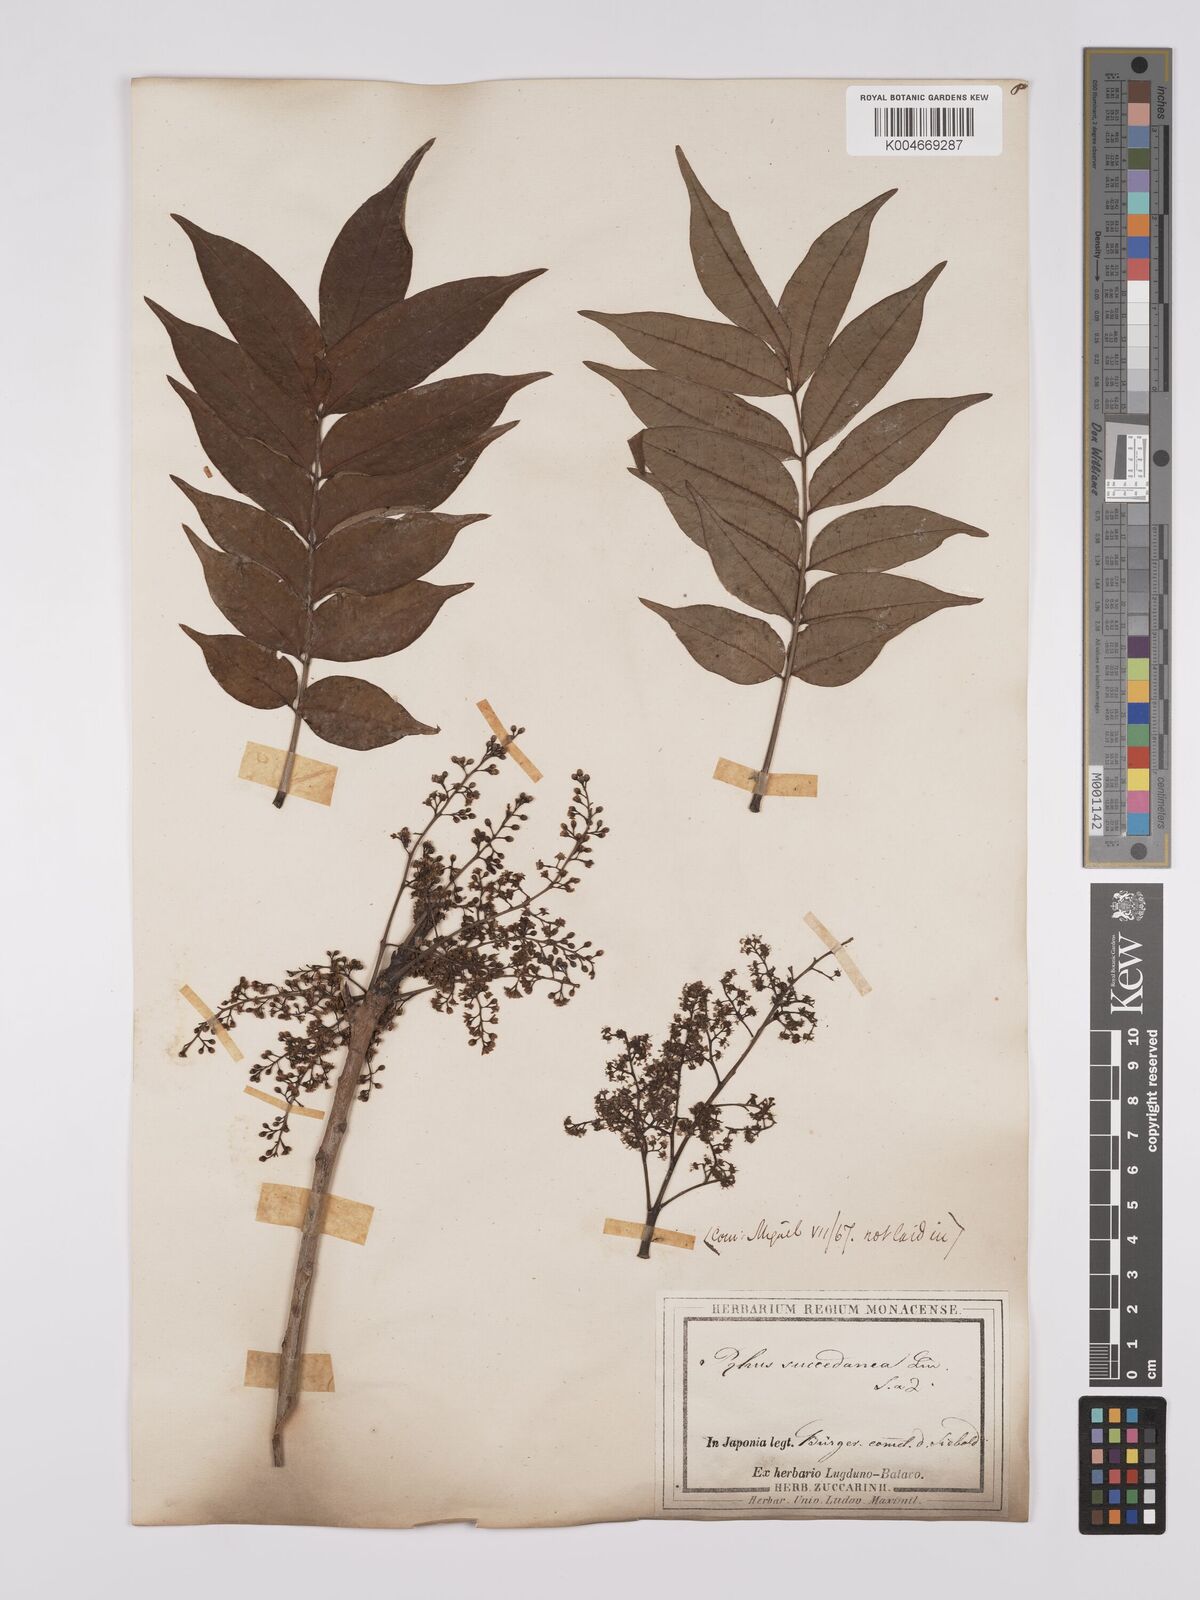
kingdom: Plantae
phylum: Tracheophyta
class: Magnoliopsida
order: Sapindales
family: Anacardiaceae
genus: Toxicodendron
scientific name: Toxicodendron succedaneum
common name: Wax tree
